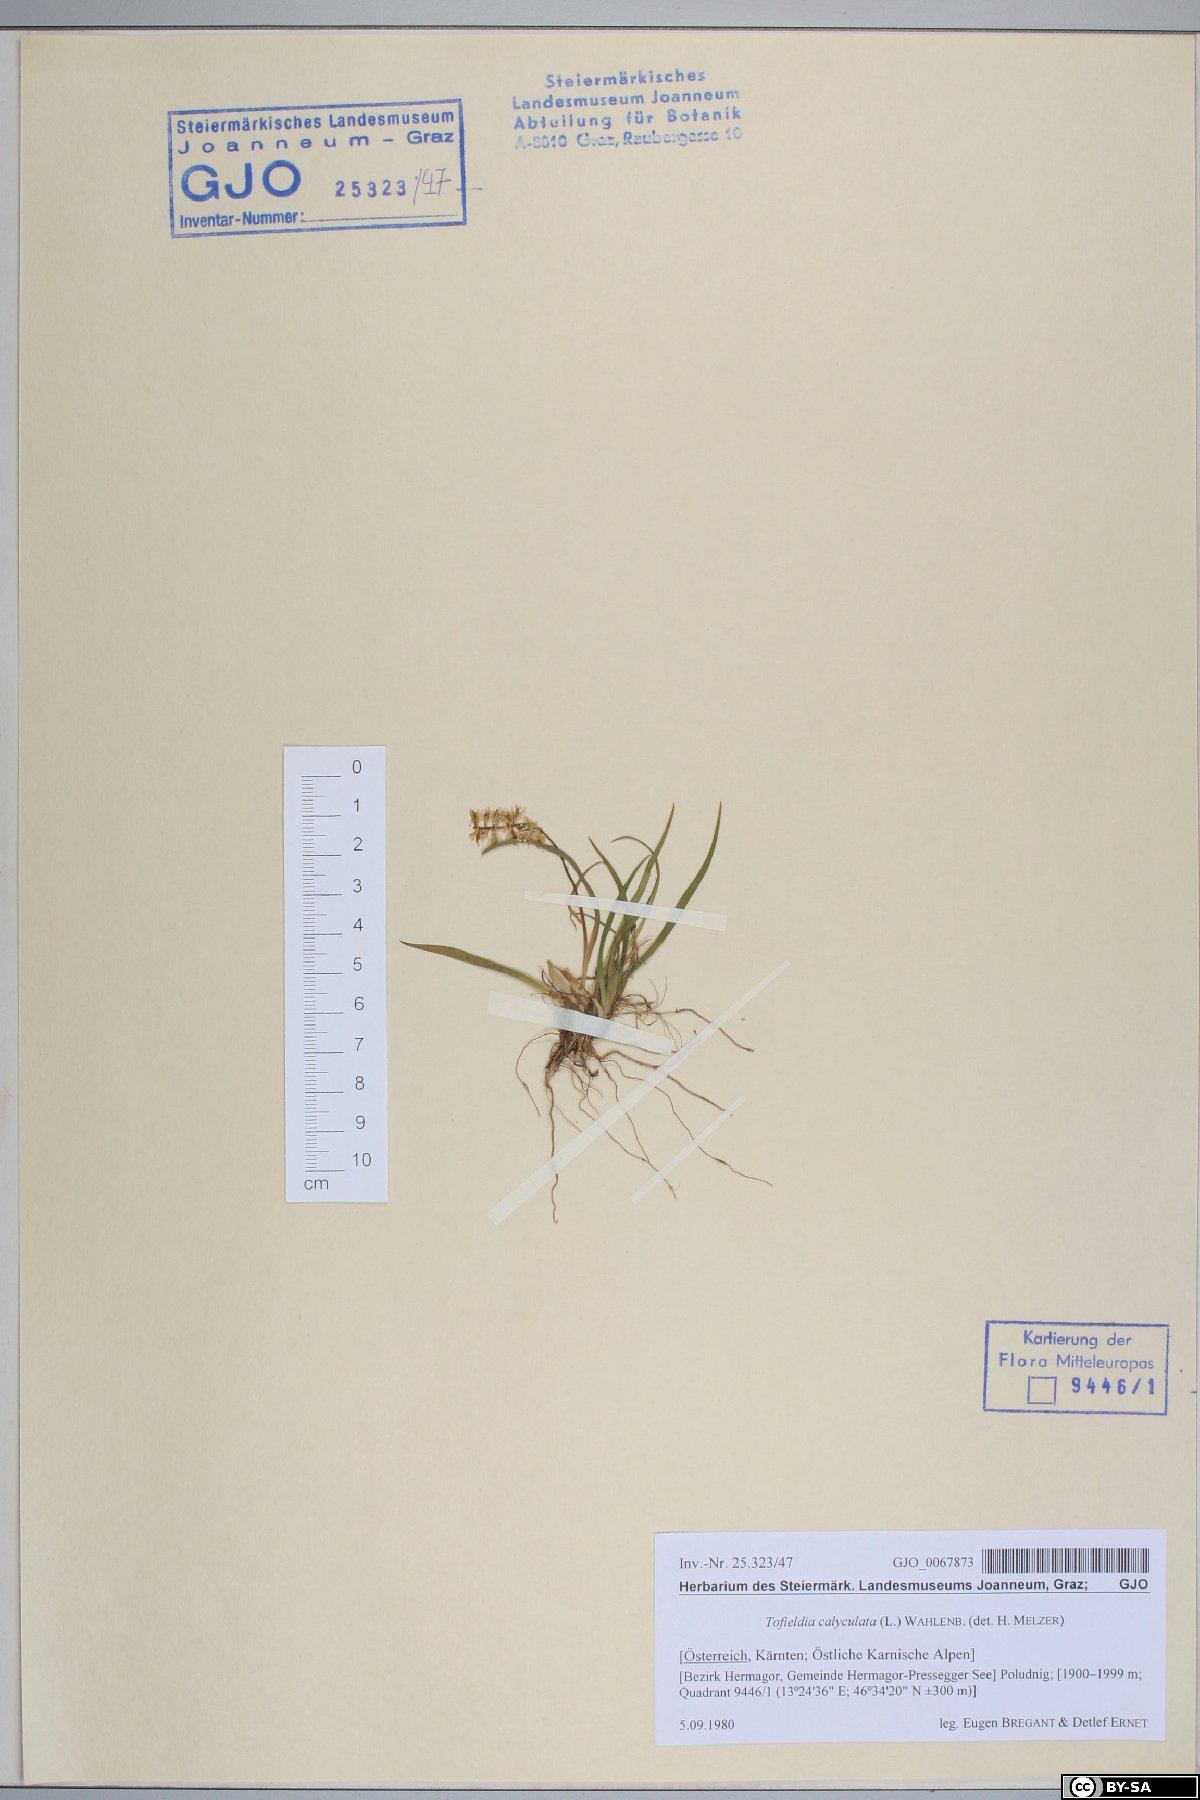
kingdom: Plantae
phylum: Tracheophyta
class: Liliopsida
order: Alismatales
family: Tofieldiaceae
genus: Tofieldia
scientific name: Tofieldia calyculata
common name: German-asphodel
